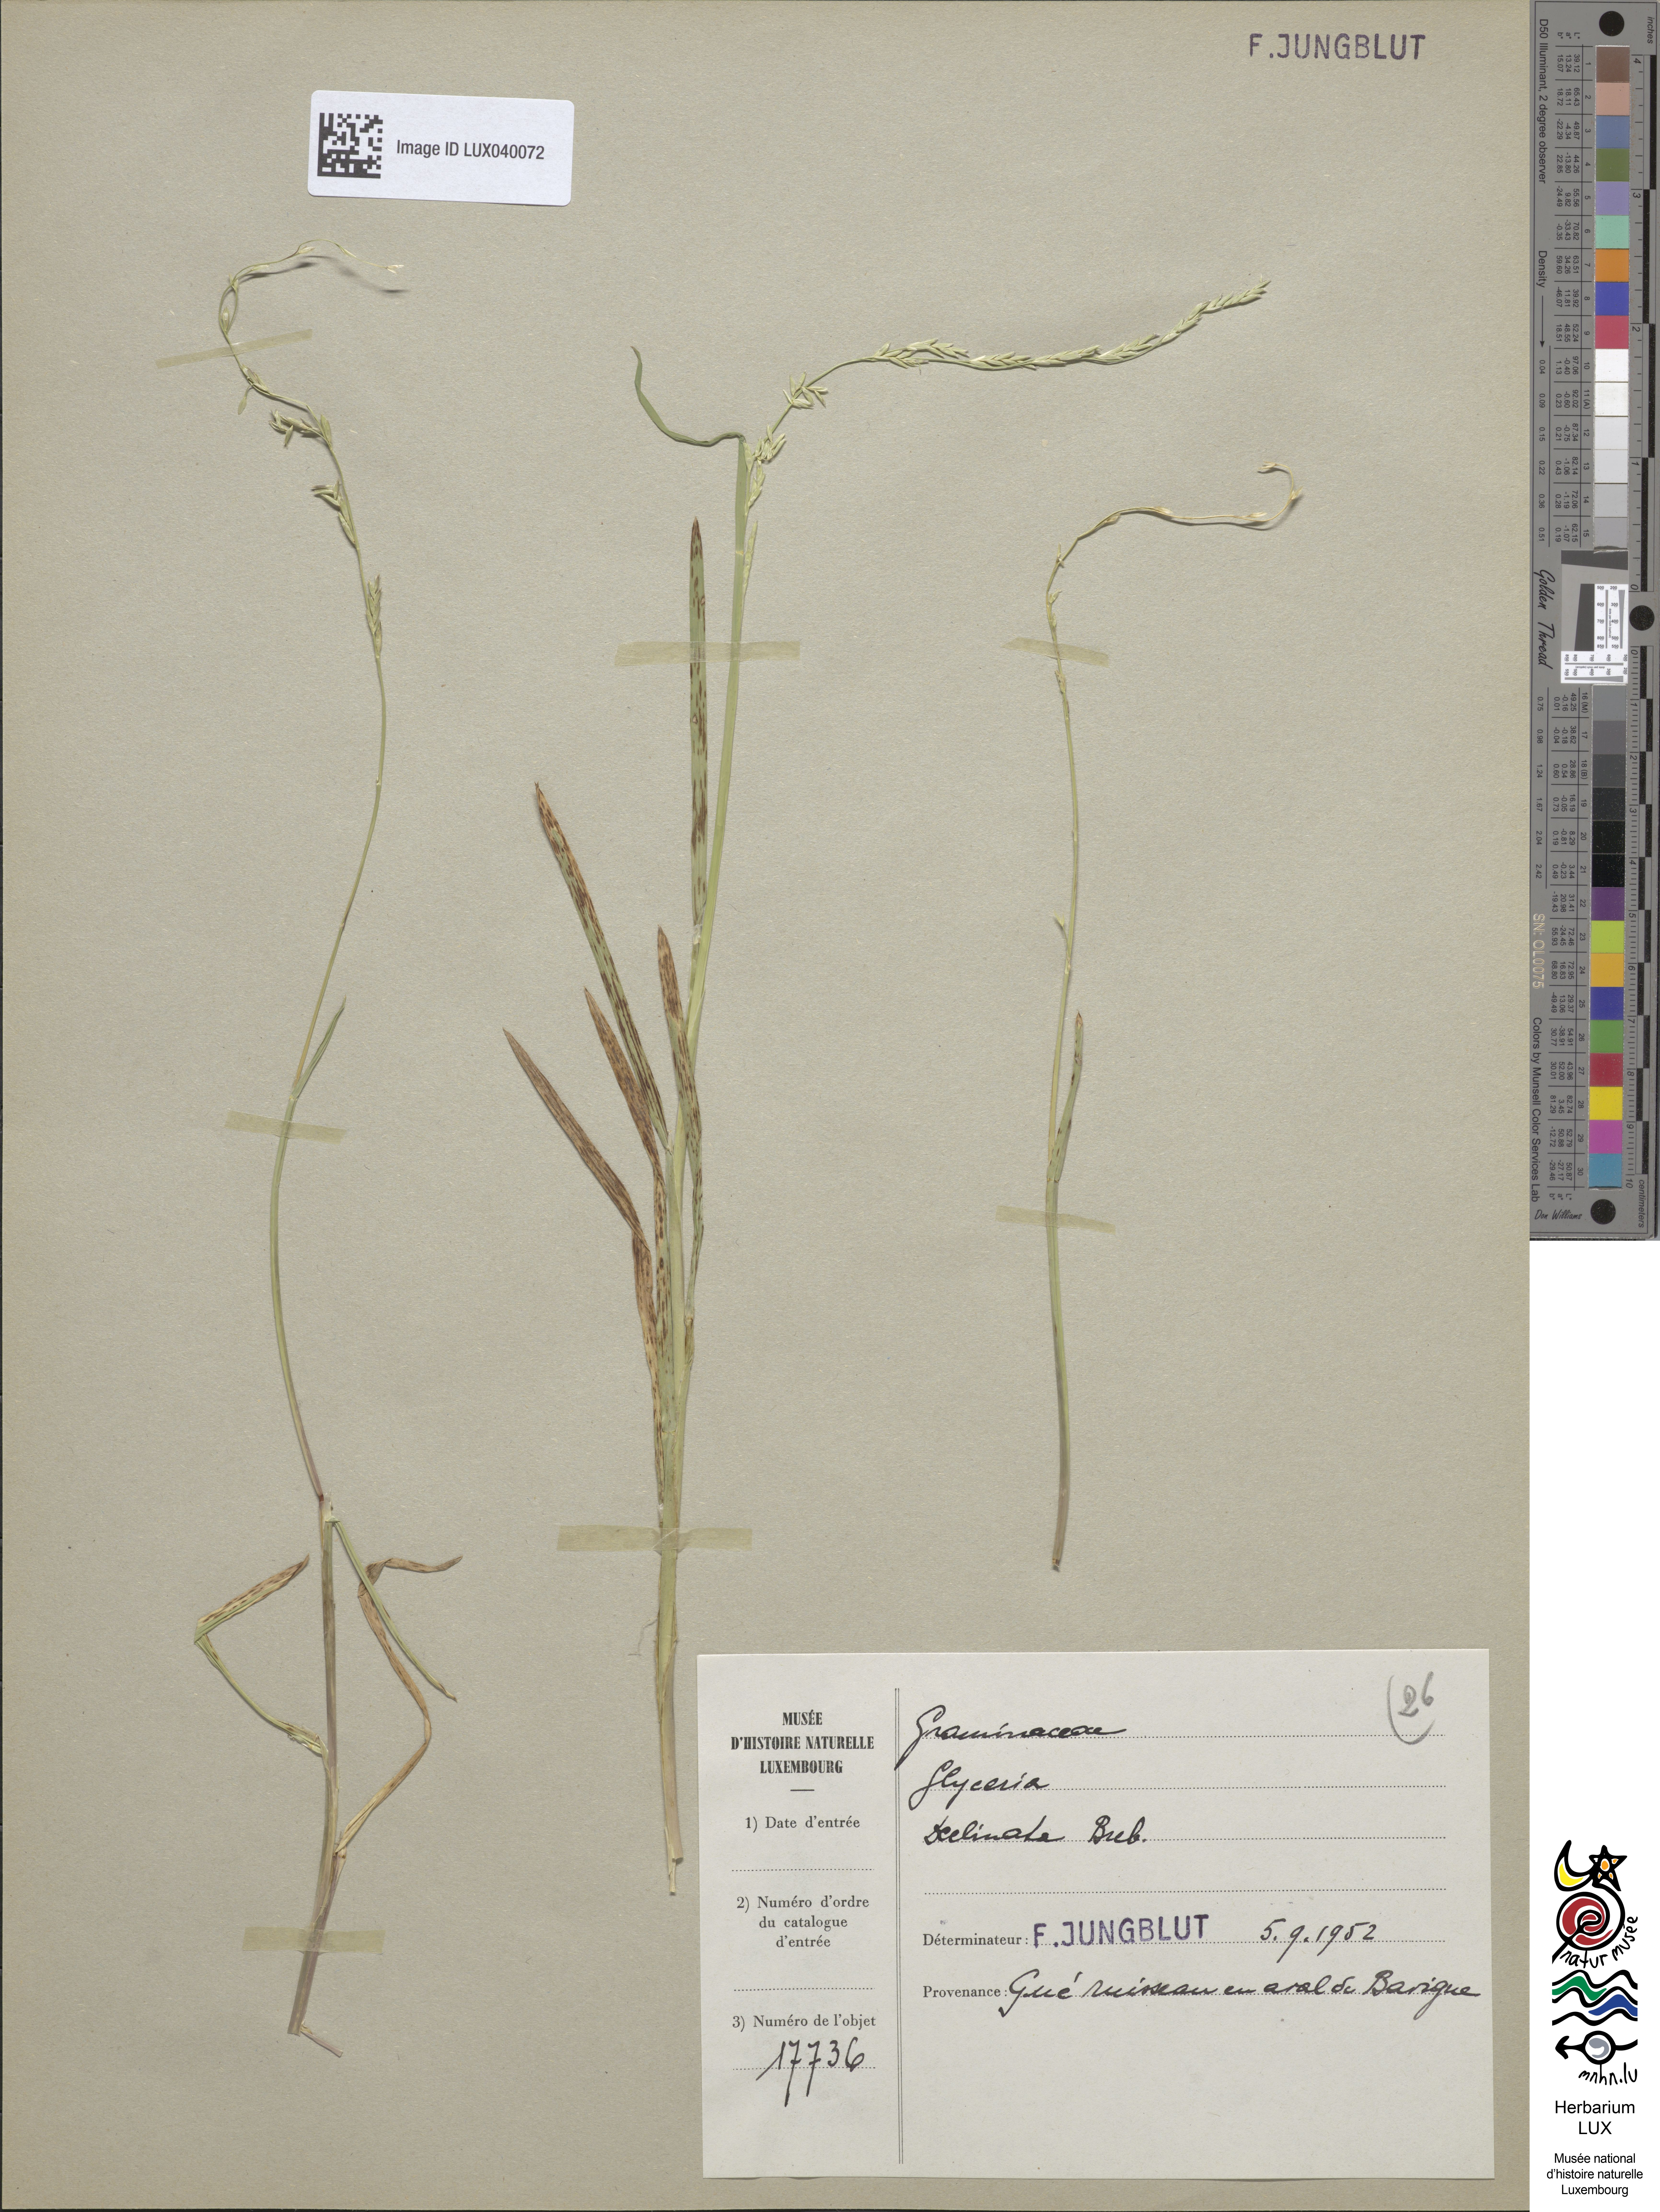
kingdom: Plantae
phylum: Tracheophyta
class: Liliopsida
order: Poales
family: Poaceae
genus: Glyceria
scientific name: Glyceria declinata
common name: Small sweet-grass
